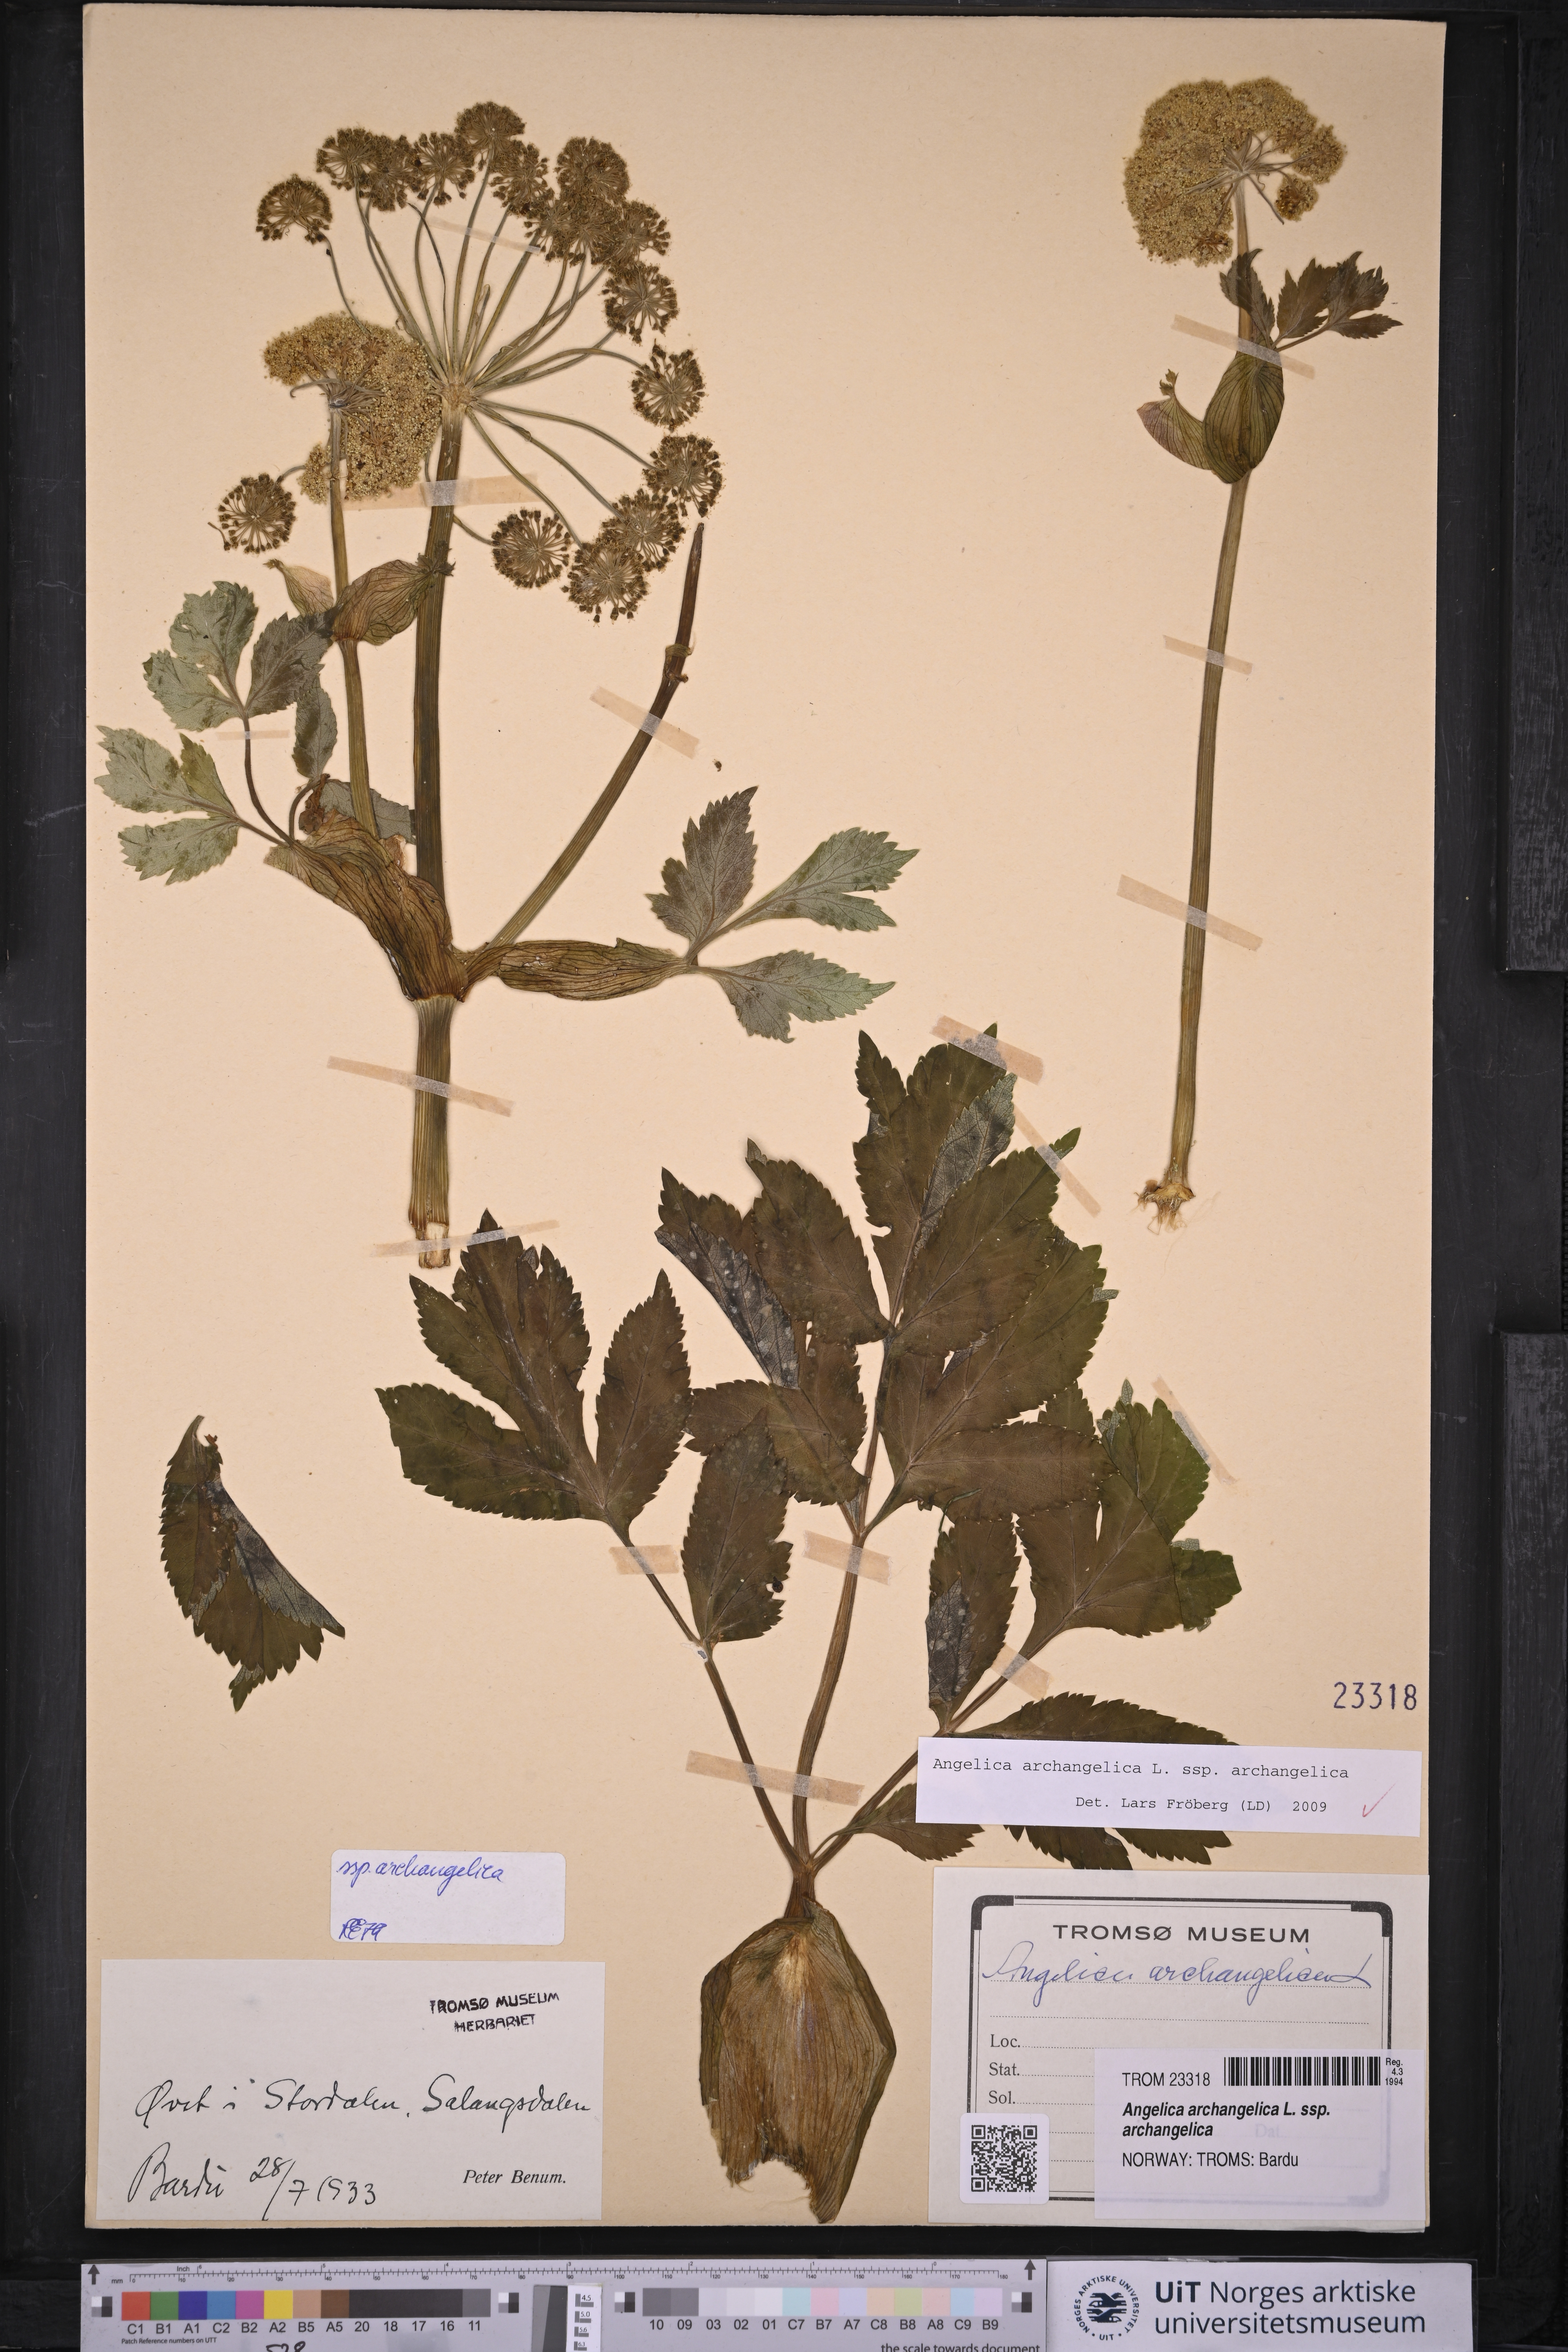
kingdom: Plantae
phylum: Tracheophyta
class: Magnoliopsida
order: Apiales
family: Apiaceae
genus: Angelica
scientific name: Angelica archangelica
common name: Garden angelica
